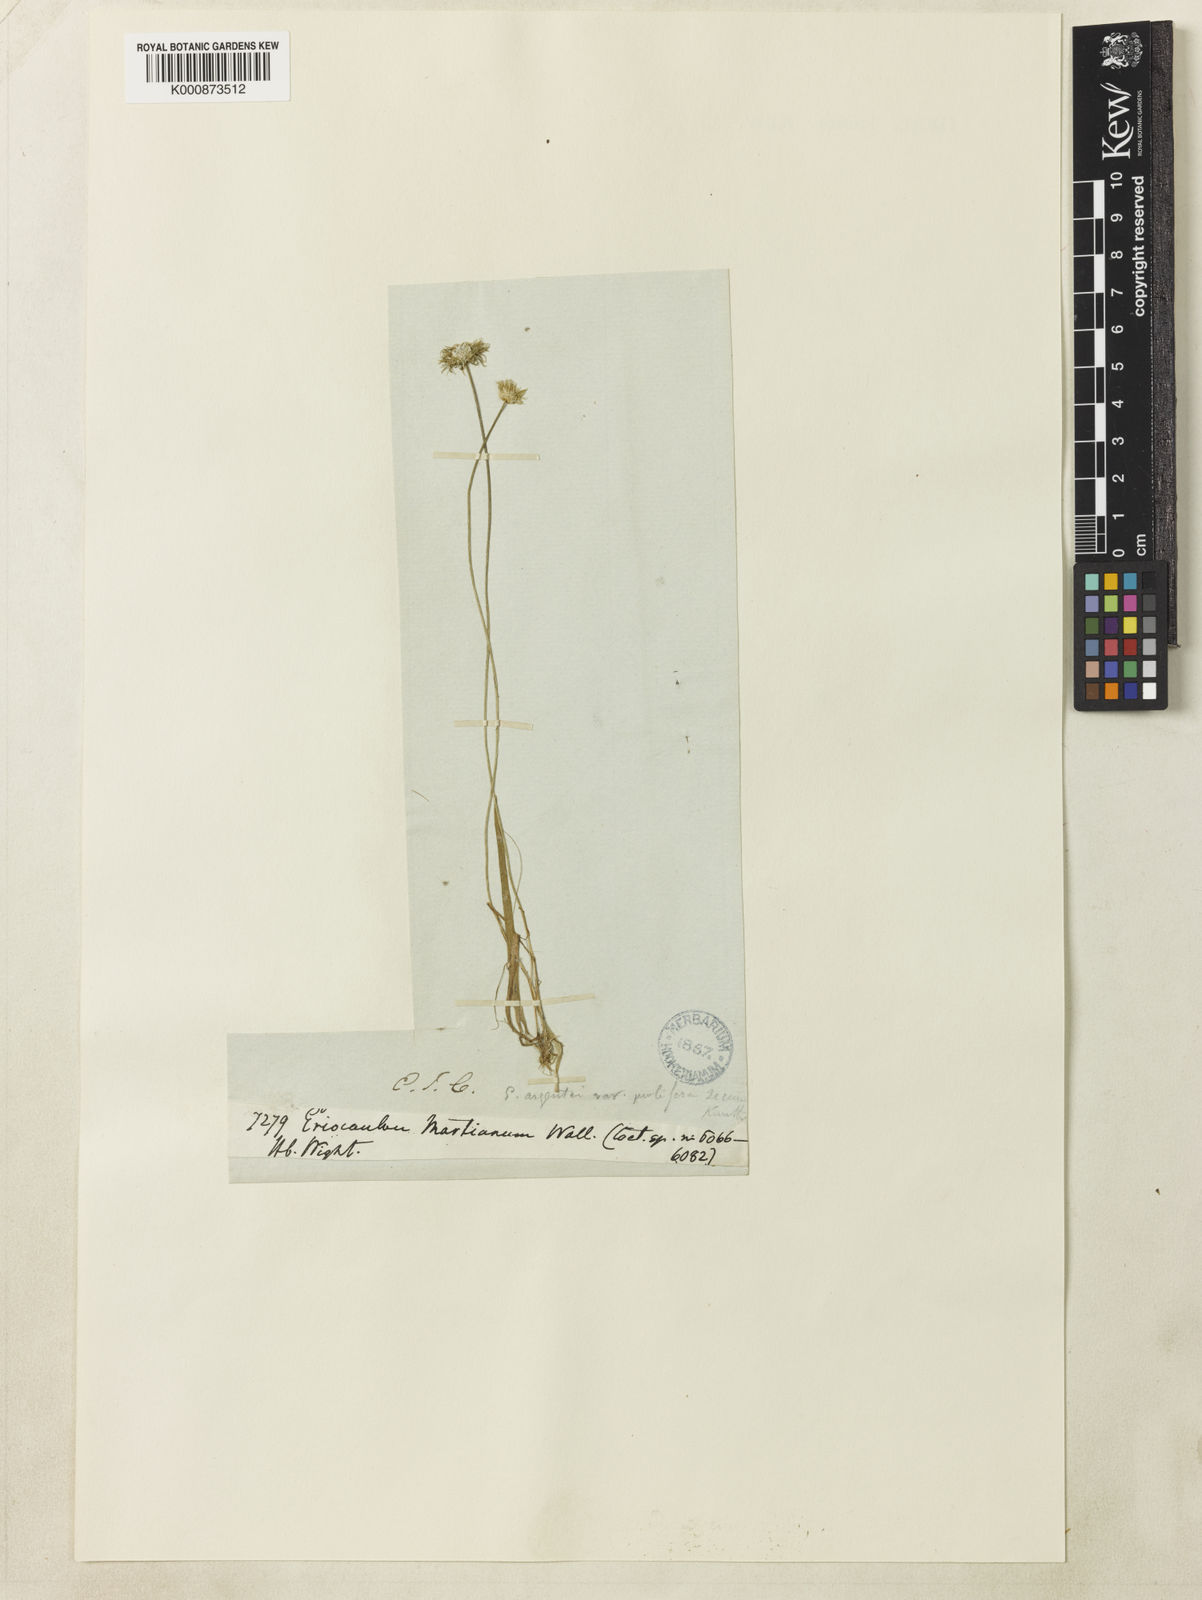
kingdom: Plantae
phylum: Tracheophyta
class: Liliopsida
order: Poales
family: Eriocaulaceae
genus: Eriocaulon
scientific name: Eriocaulon quinquangulare
